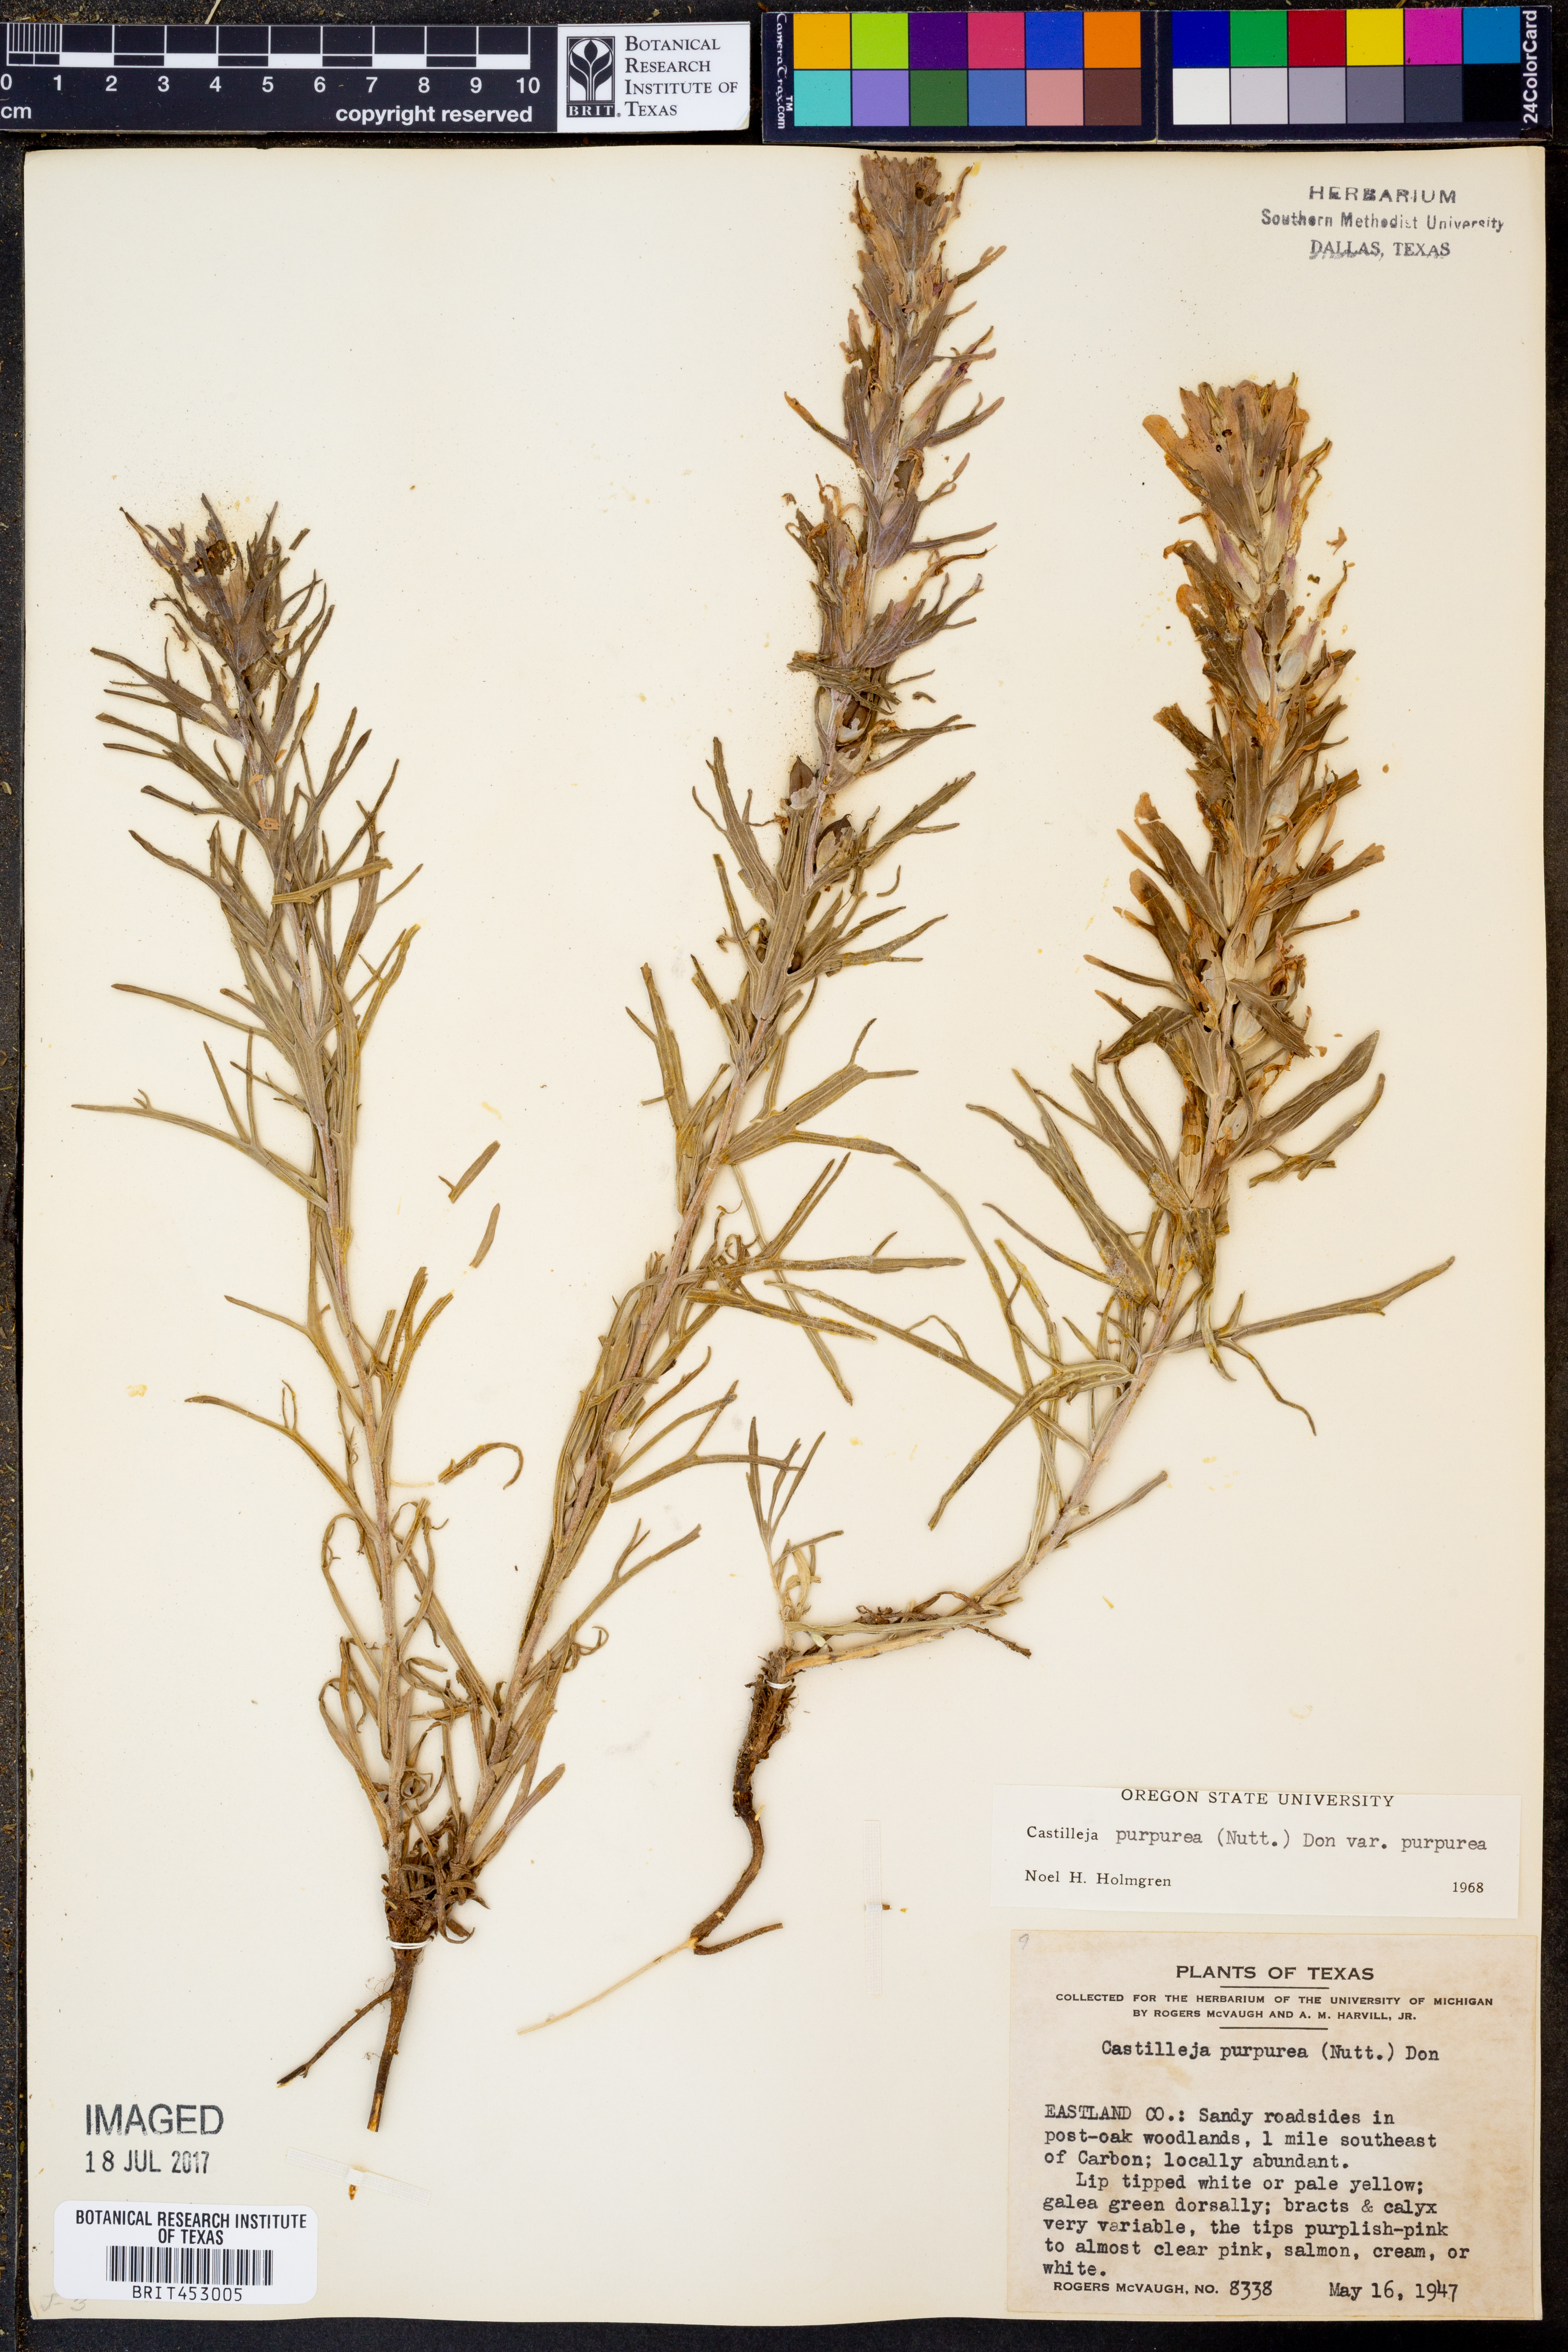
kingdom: Plantae
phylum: Tracheophyta
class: Magnoliopsida
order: Lamiales
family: Orobanchaceae
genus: Castilleja
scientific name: Castilleja purpurea
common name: Plains paintbrush
